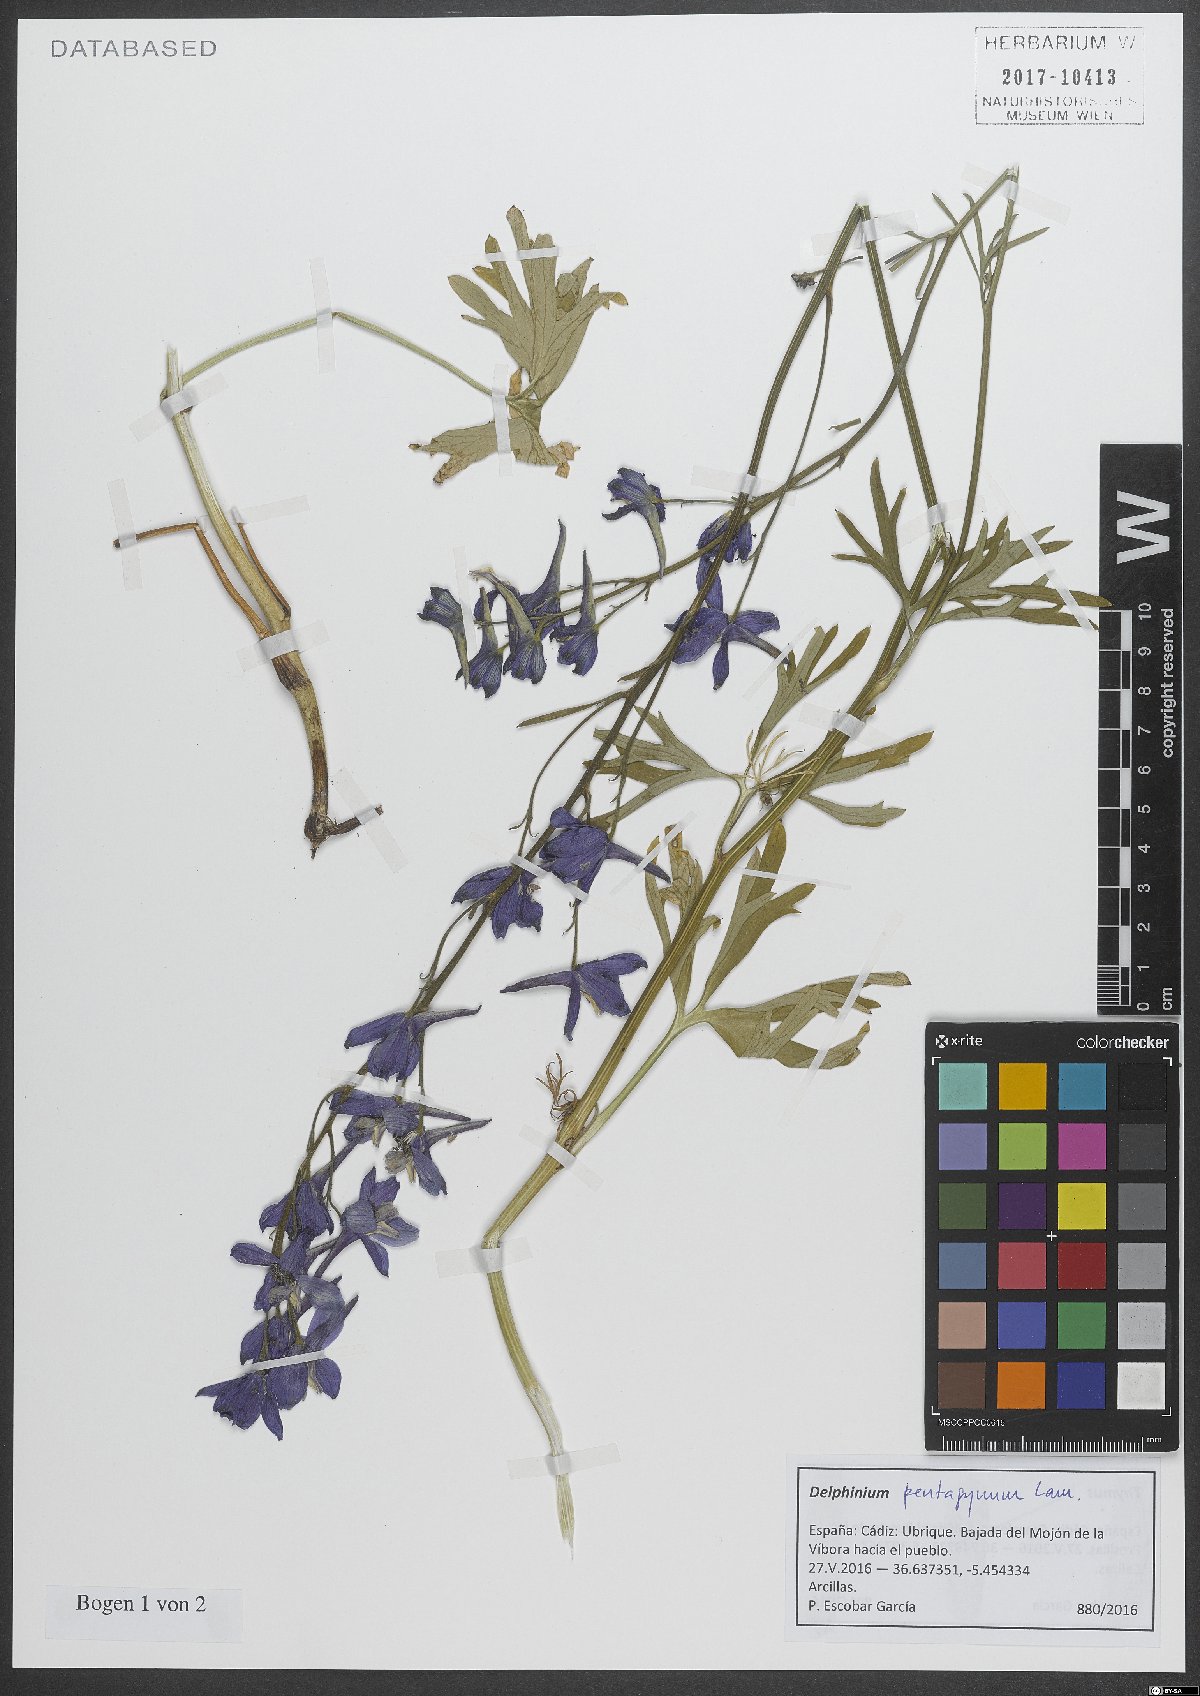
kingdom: Plantae
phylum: Tracheophyta
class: Magnoliopsida
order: Ranunculales
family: Ranunculaceae
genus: Delphinium
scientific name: Delphinium pentagynum
